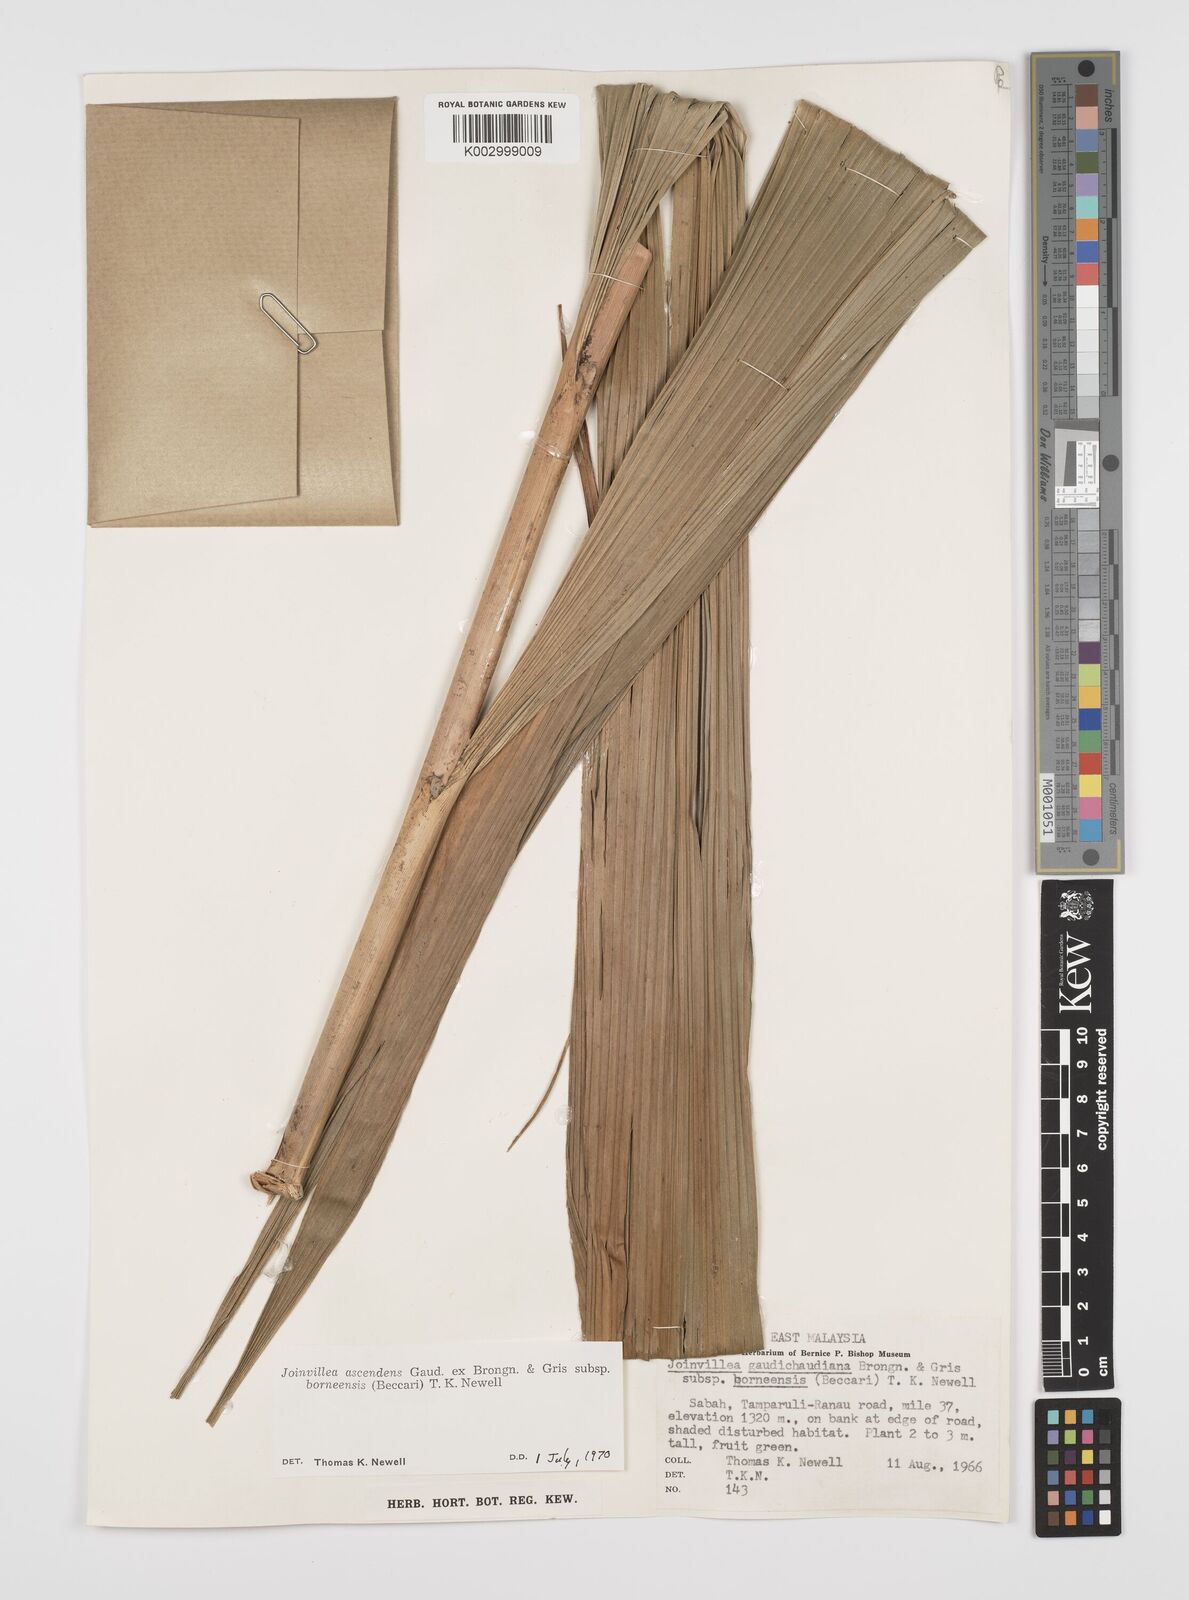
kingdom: Plantae
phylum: Tracheophyta
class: Liliopsida
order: Poales
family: Joinvilleaceae
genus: Joinvillea
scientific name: Joinvillea borneensis
